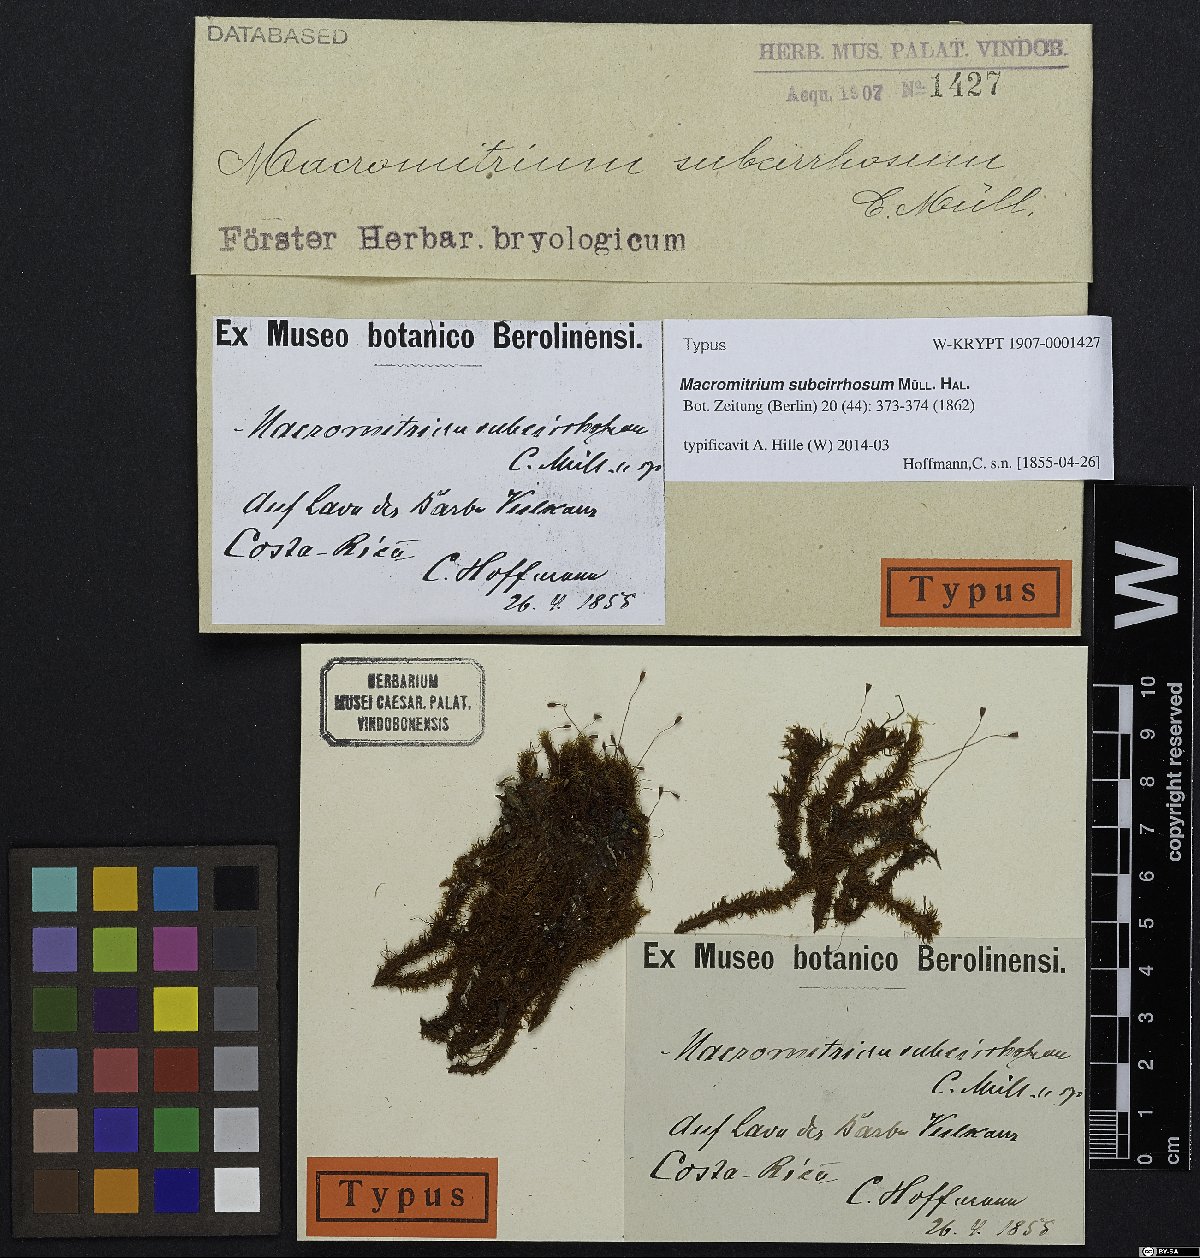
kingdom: Plantae
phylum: Bryophyta
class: Bryopsida
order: Orthotrichales
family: Orthotrichaceae
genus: Macromitrium
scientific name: Macromitrium subcirrhosum
